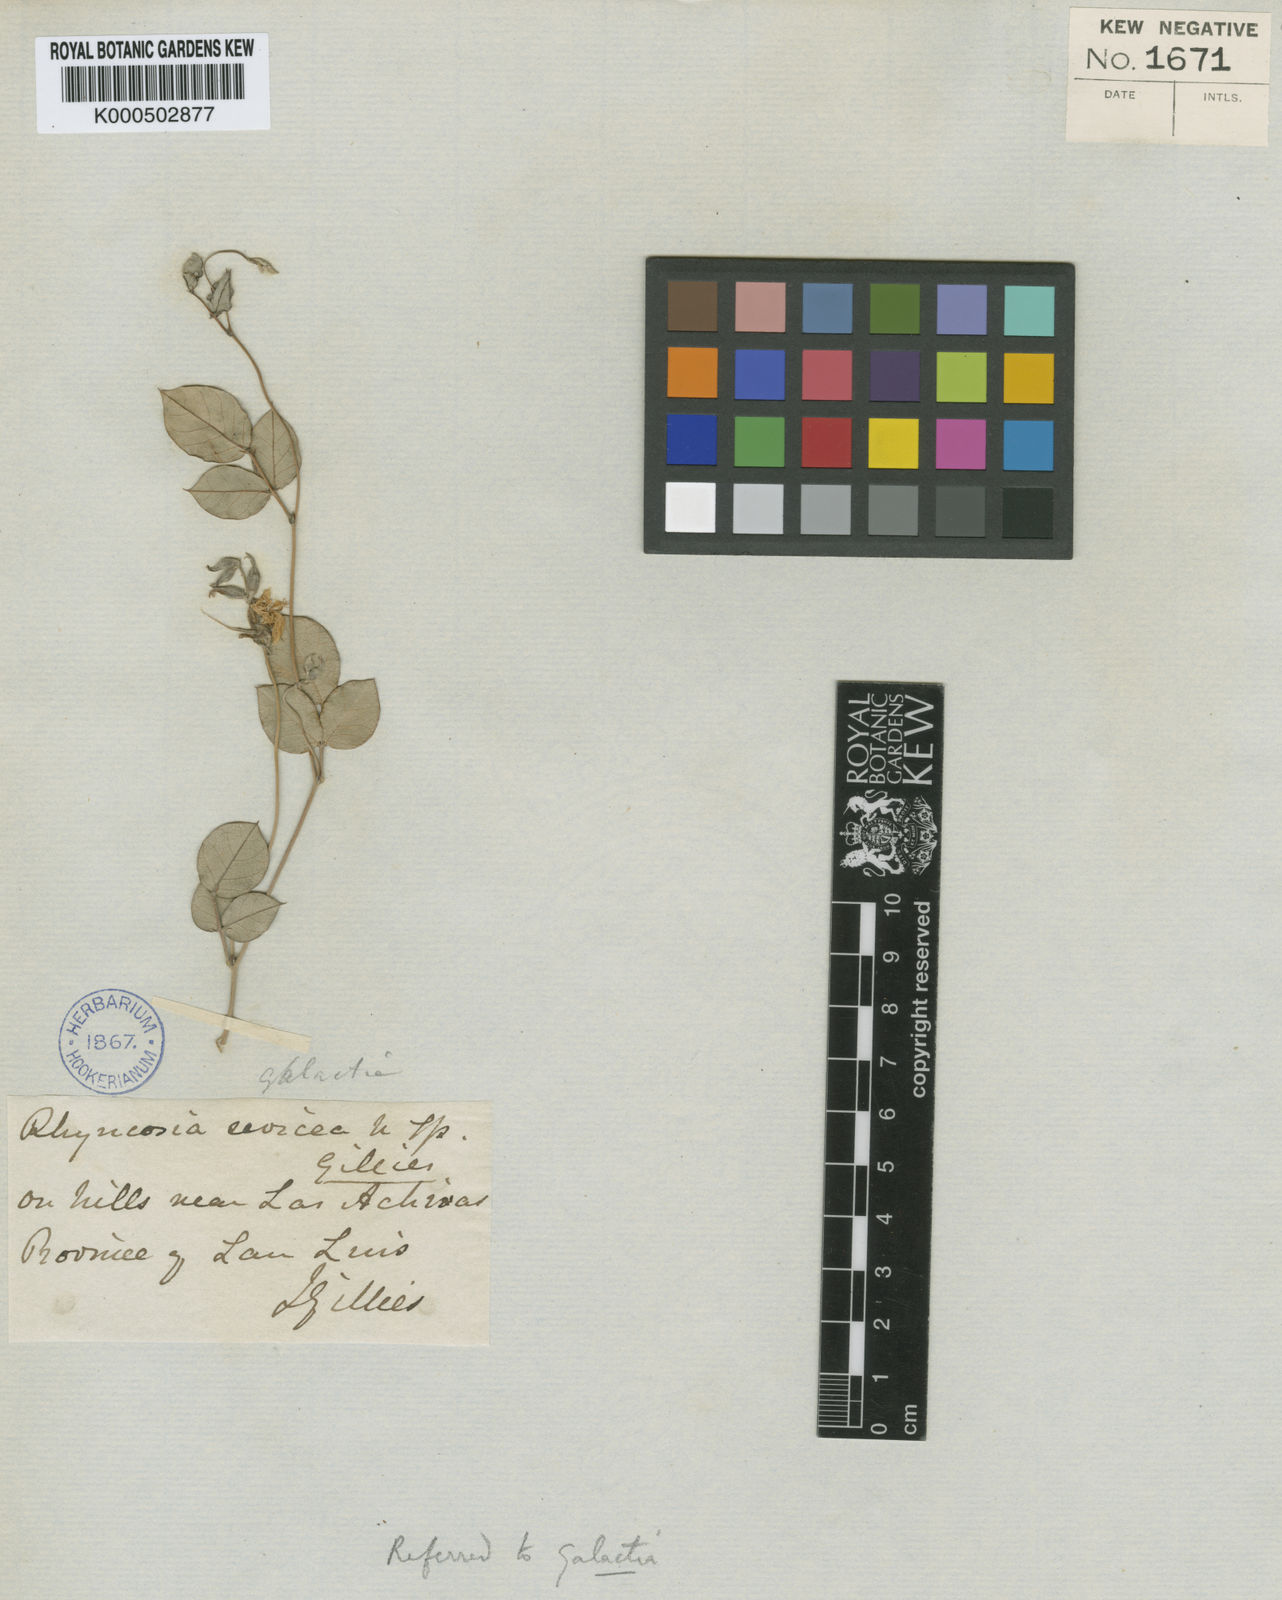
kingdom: Plantae
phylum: Tracheophyta
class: Magnoliopsida
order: Fabales
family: Fabaceae
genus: Galactia
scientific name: Galactia striata
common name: Florida hammock milkpea
